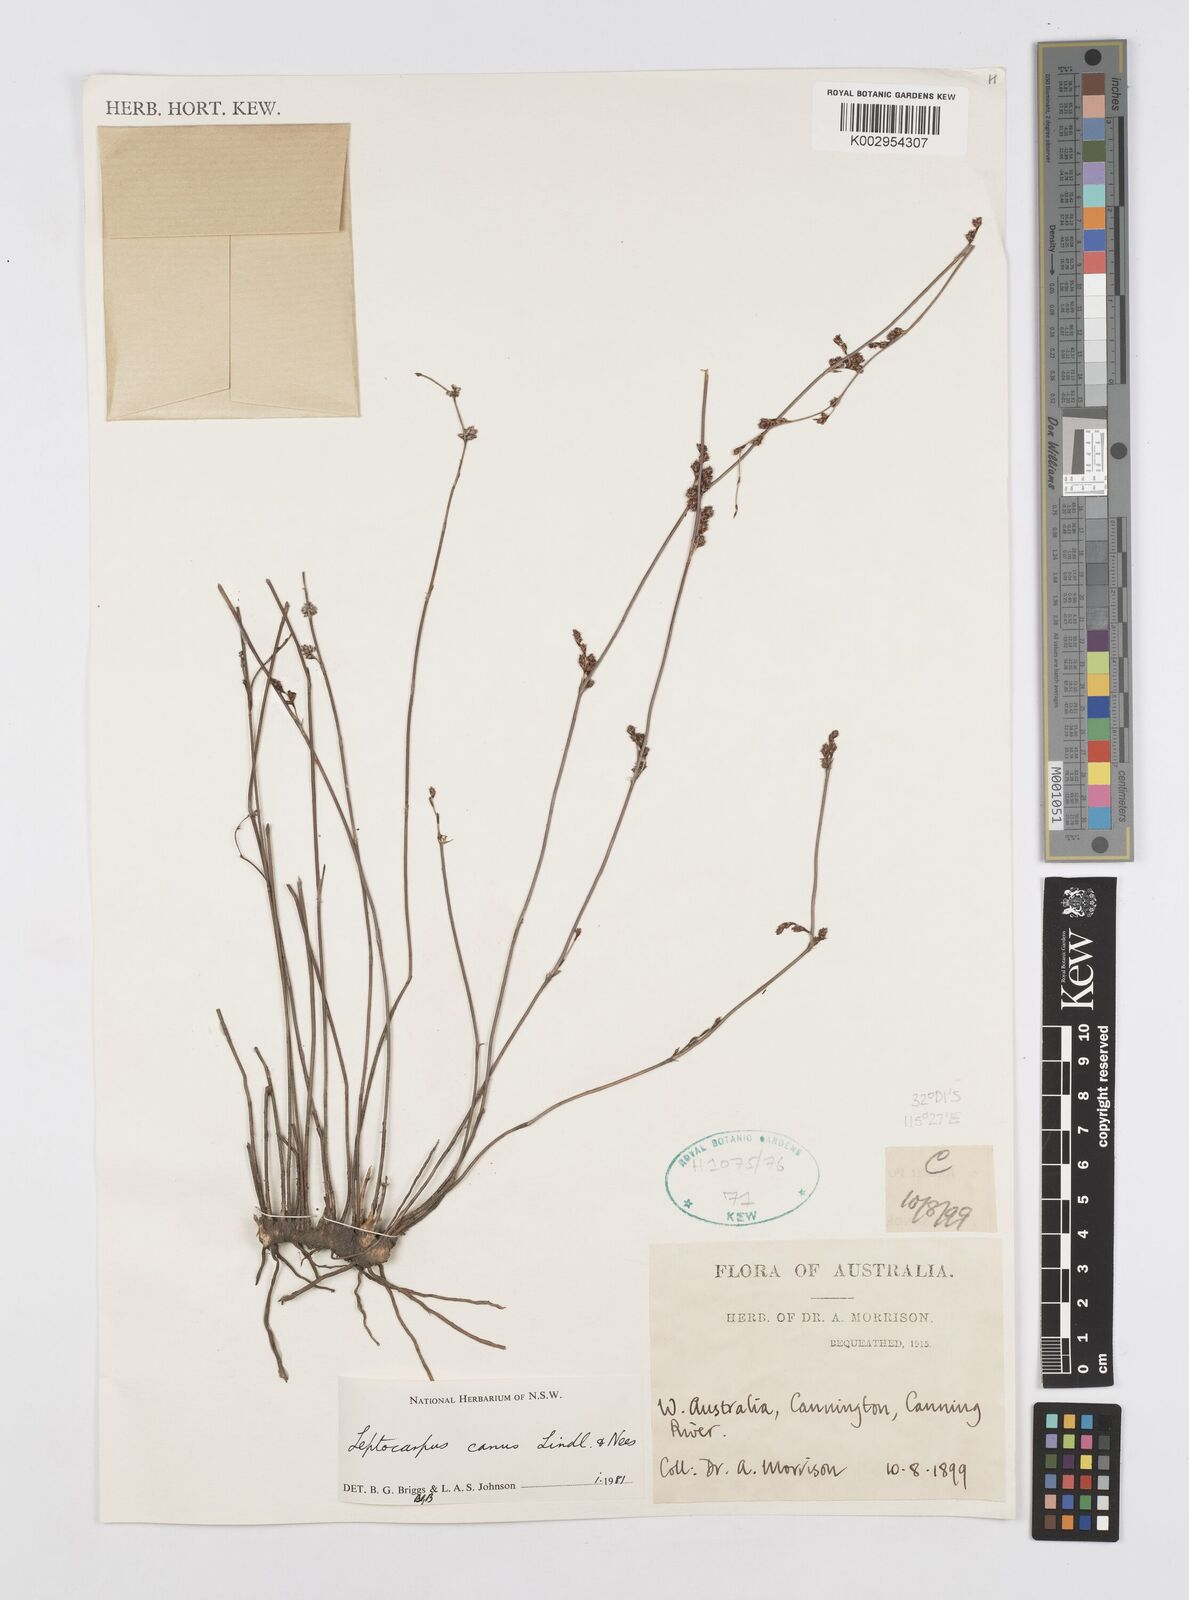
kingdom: Plantae
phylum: Tracheophyta
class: Liliopsida
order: Poales
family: Restionaceae
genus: Leptocarpus
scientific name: Leptocarpus canus
